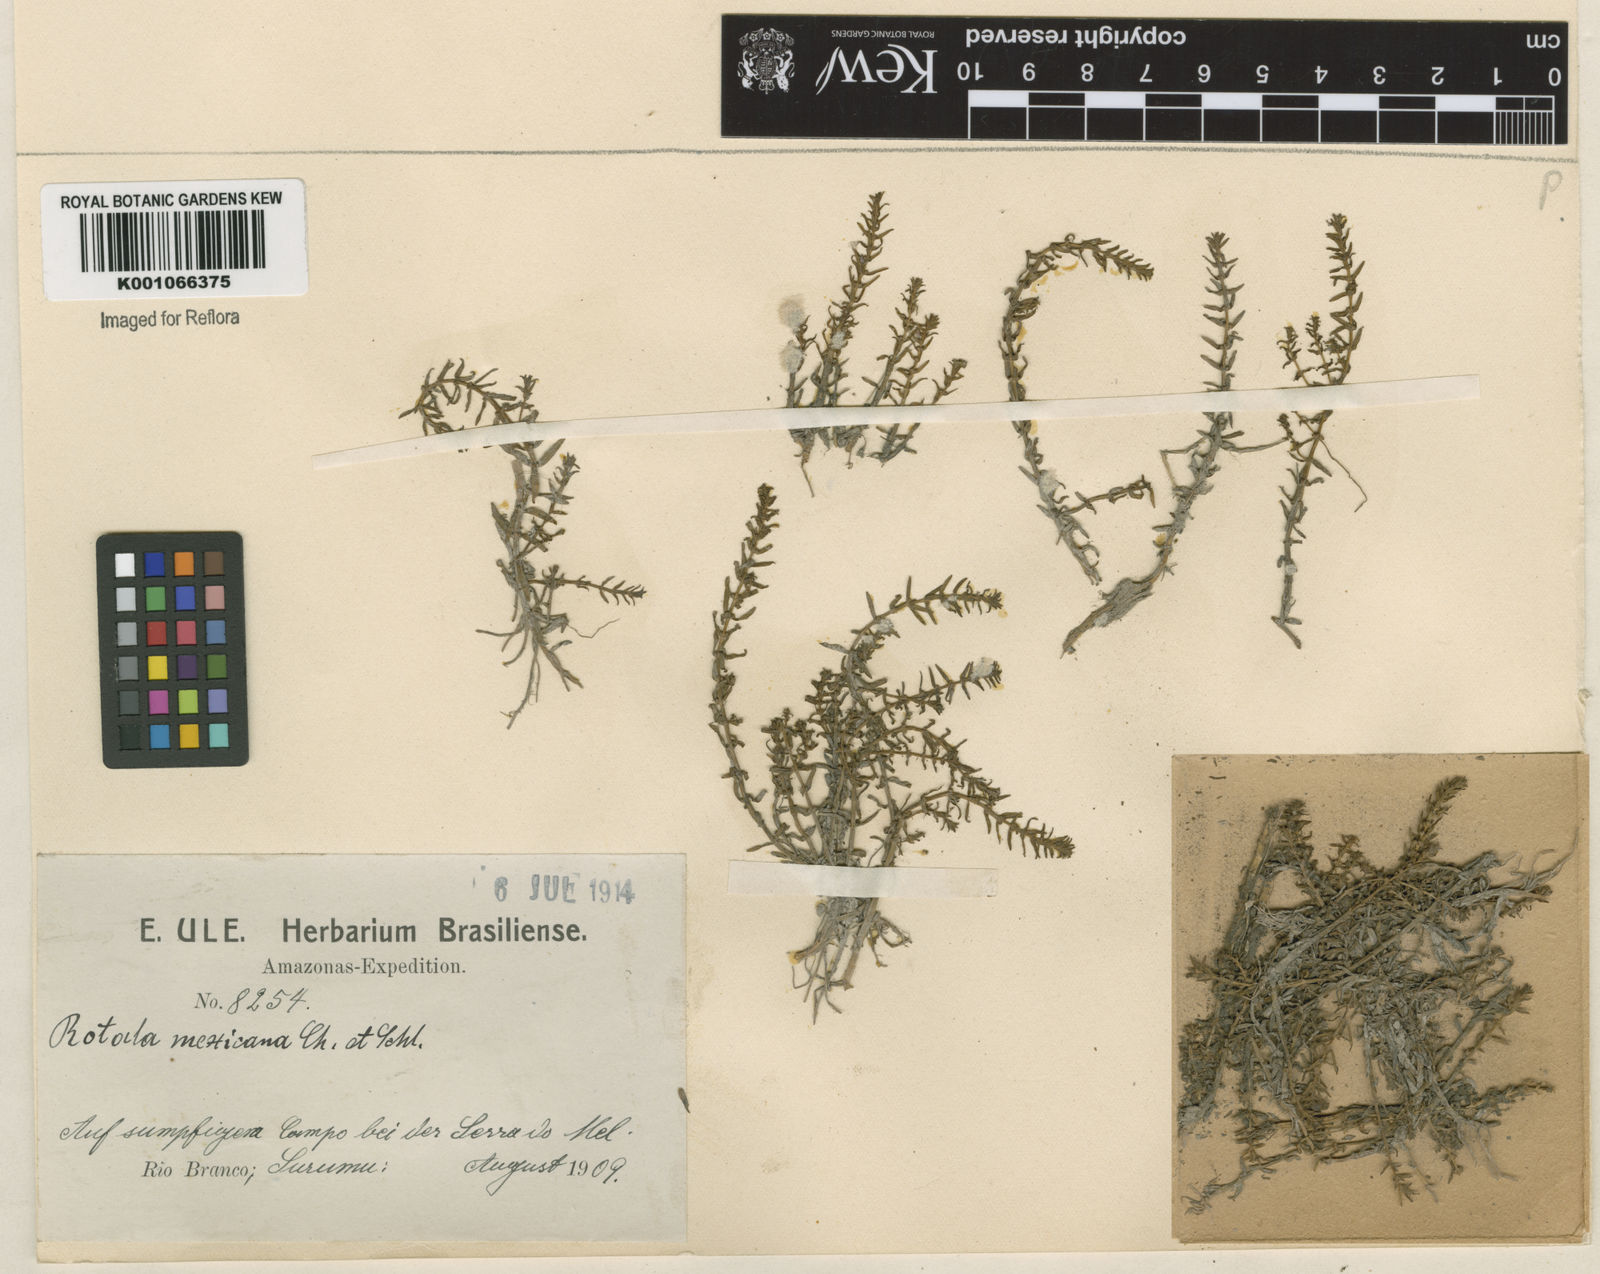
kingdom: Plantae
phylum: Tracheophyta
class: Magnoliopsida
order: Myrtales
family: Lythraceae
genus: Rotala
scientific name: Rotala mexicana
